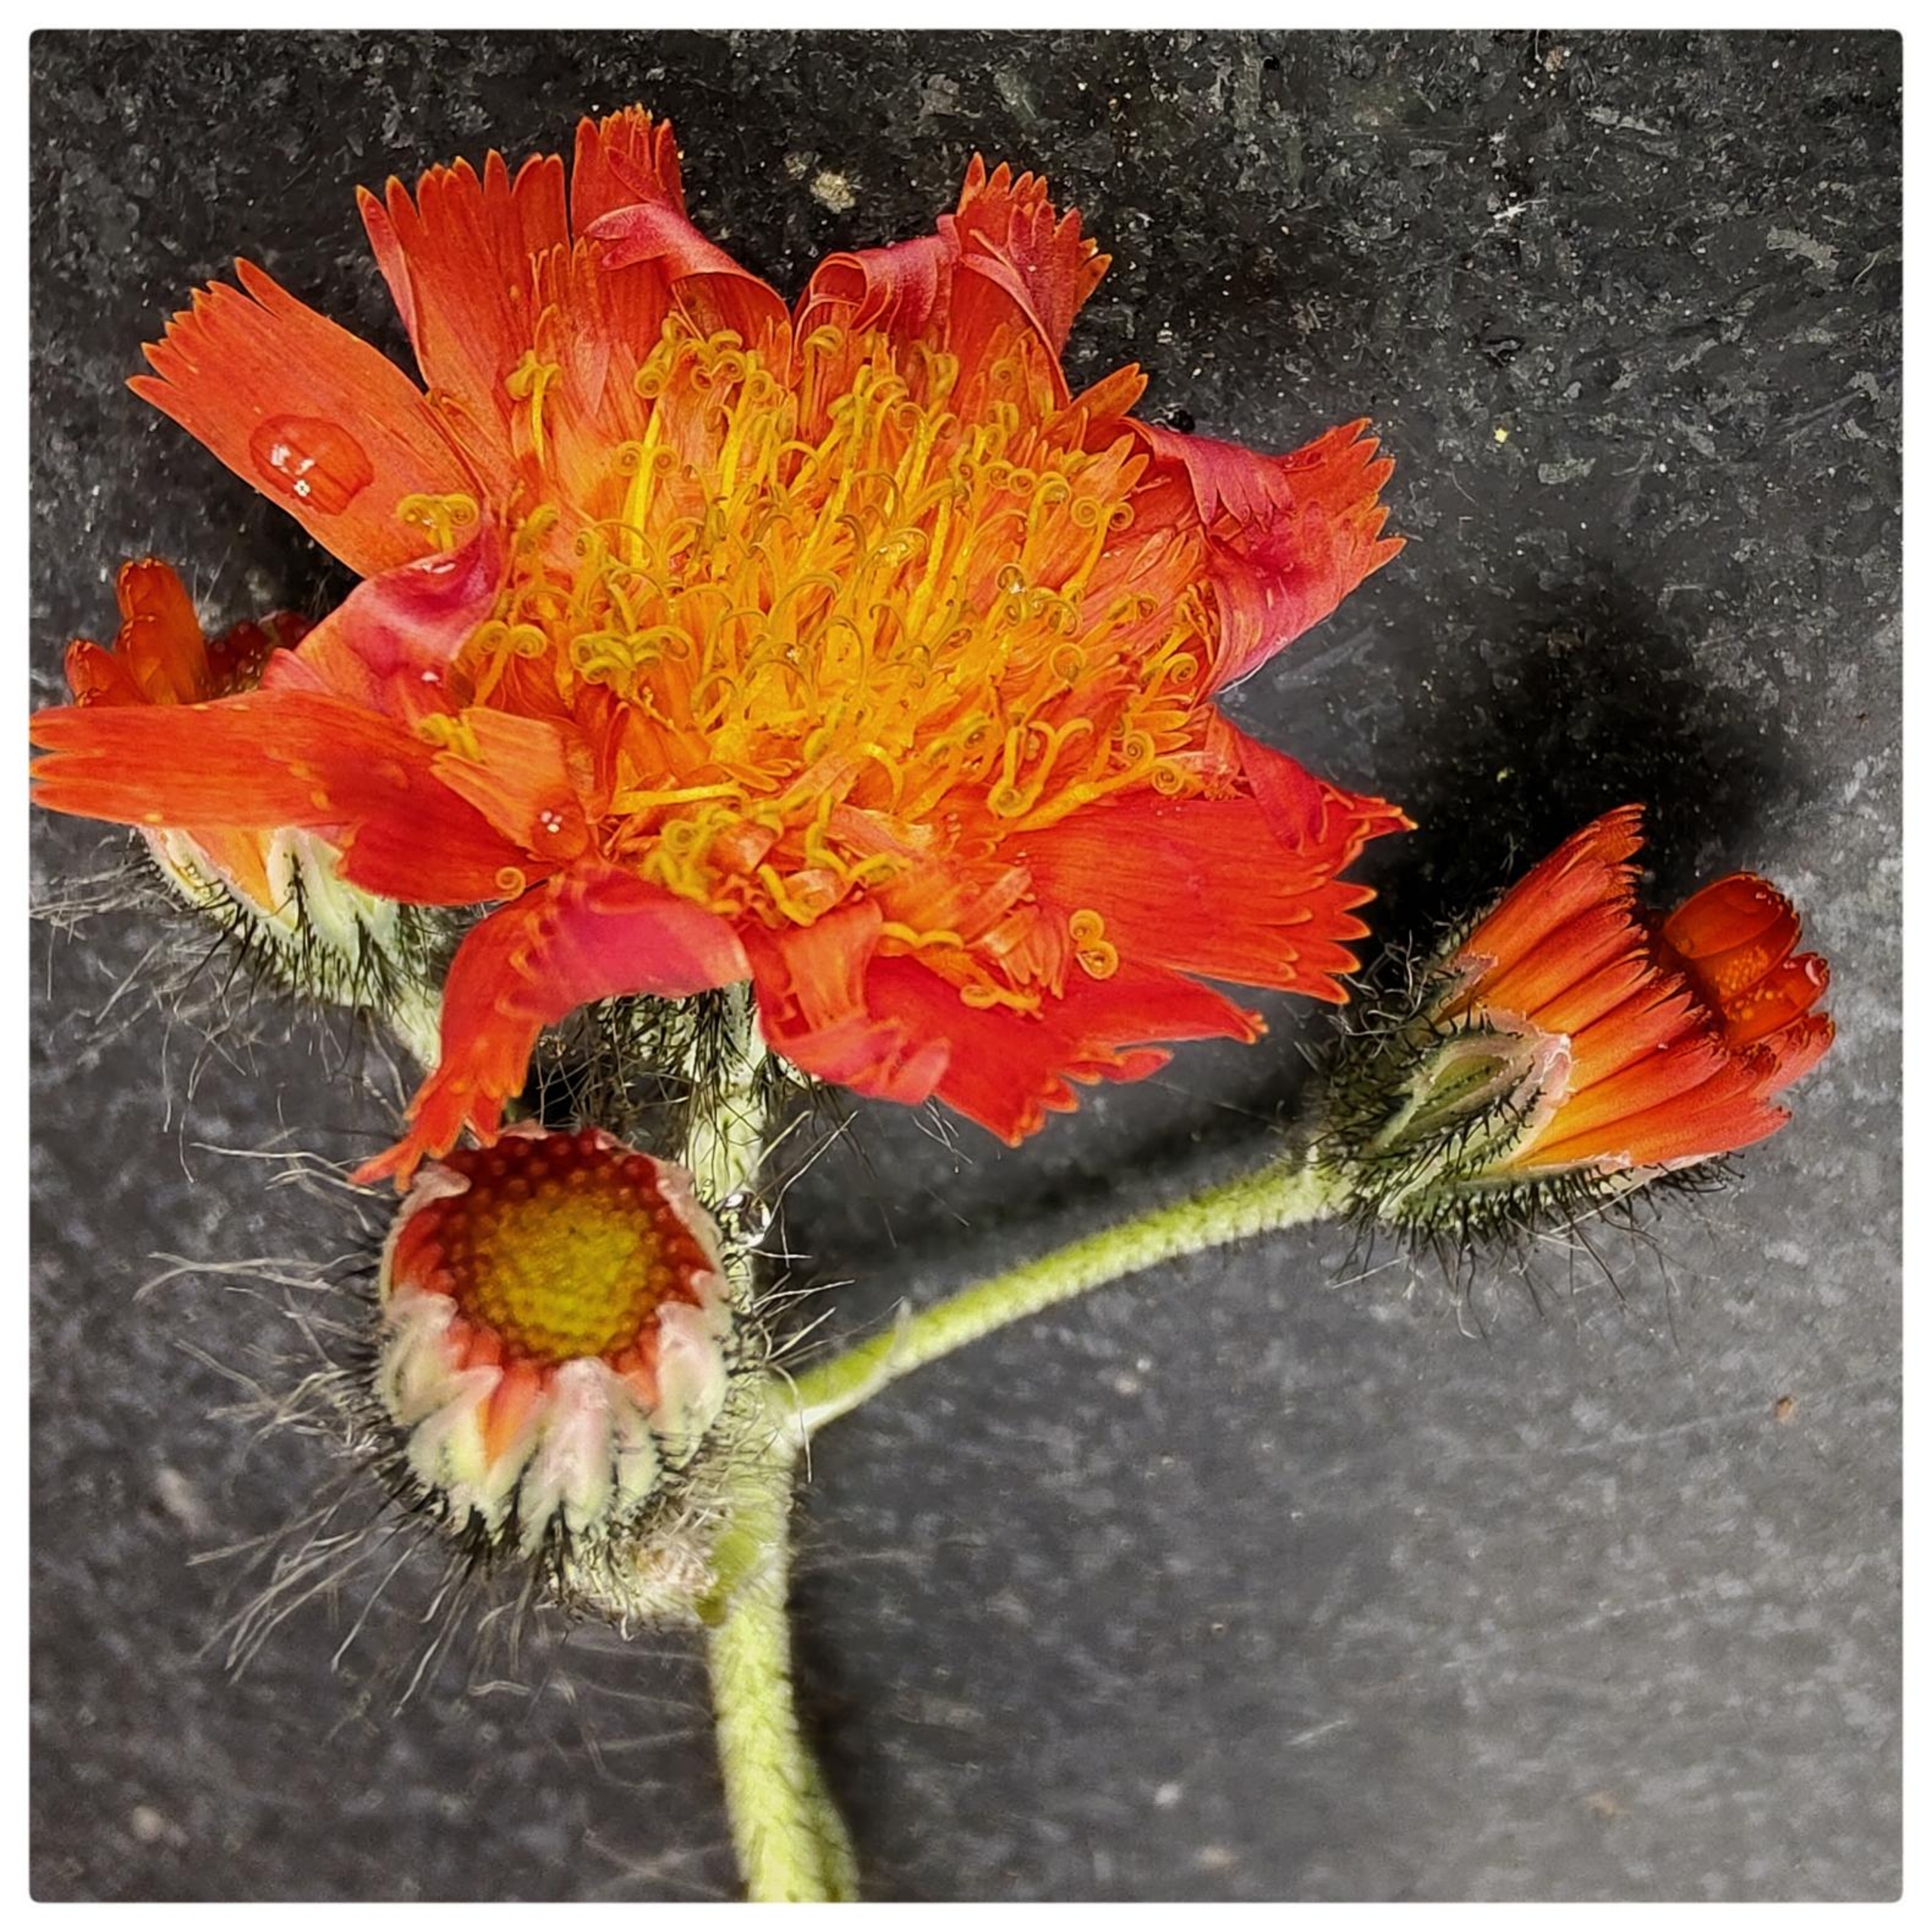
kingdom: Plantae
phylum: Tracheophyta
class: Magnoliopsida
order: Asterales
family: Asteraceae
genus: Pilosella
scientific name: Pilosella aurantiaca
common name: Pomerans-høgeurt
